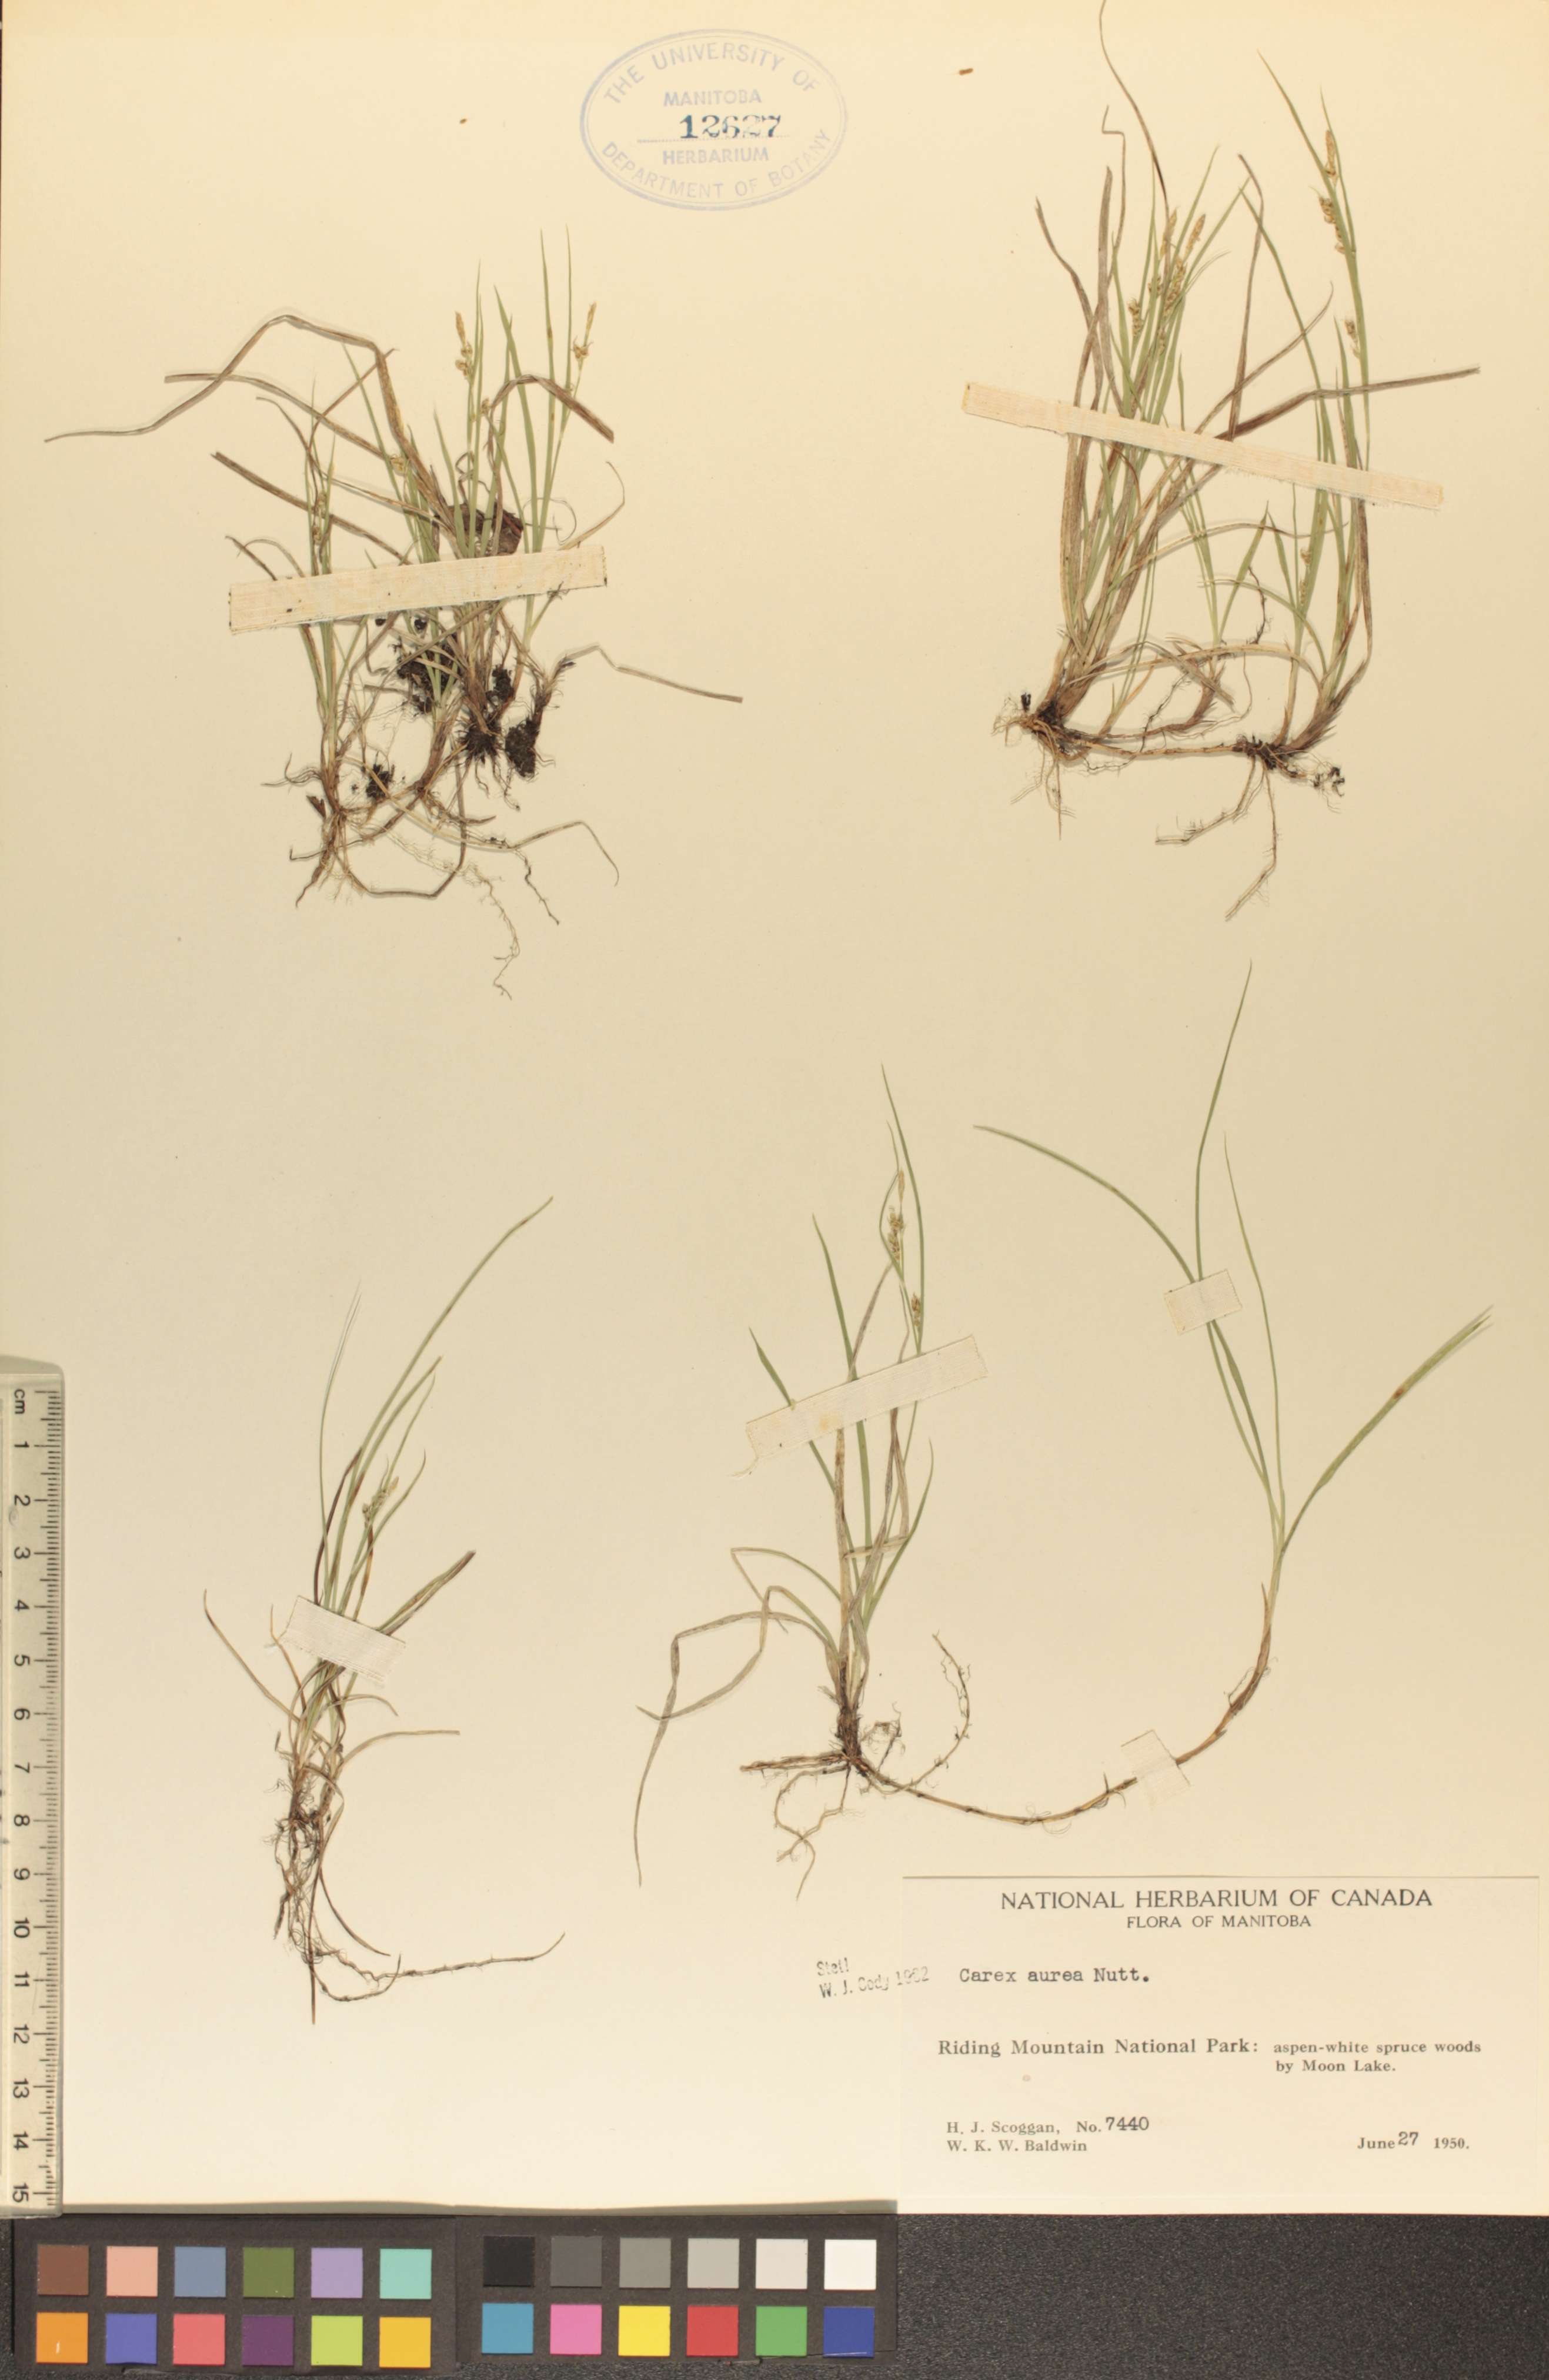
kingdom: Plantae
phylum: Tracheophyta
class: Liliopsida
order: Poales
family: Cyperaceae
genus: Carex
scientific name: Carex aurea
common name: Golden sedge
